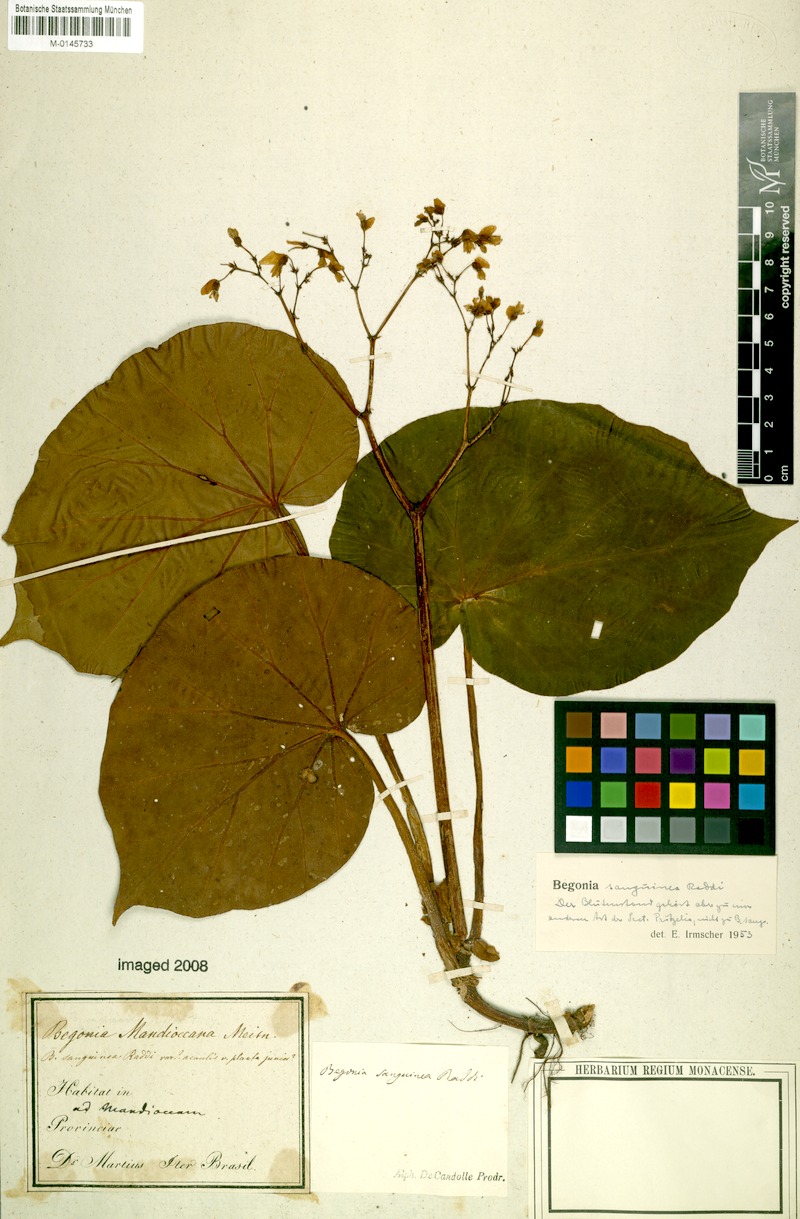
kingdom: Plantae
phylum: Tracheophyta
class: Magnoliopsida
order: Cucurbitales
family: Begoniaceae
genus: Begonia
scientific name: Begonia sanguinea
